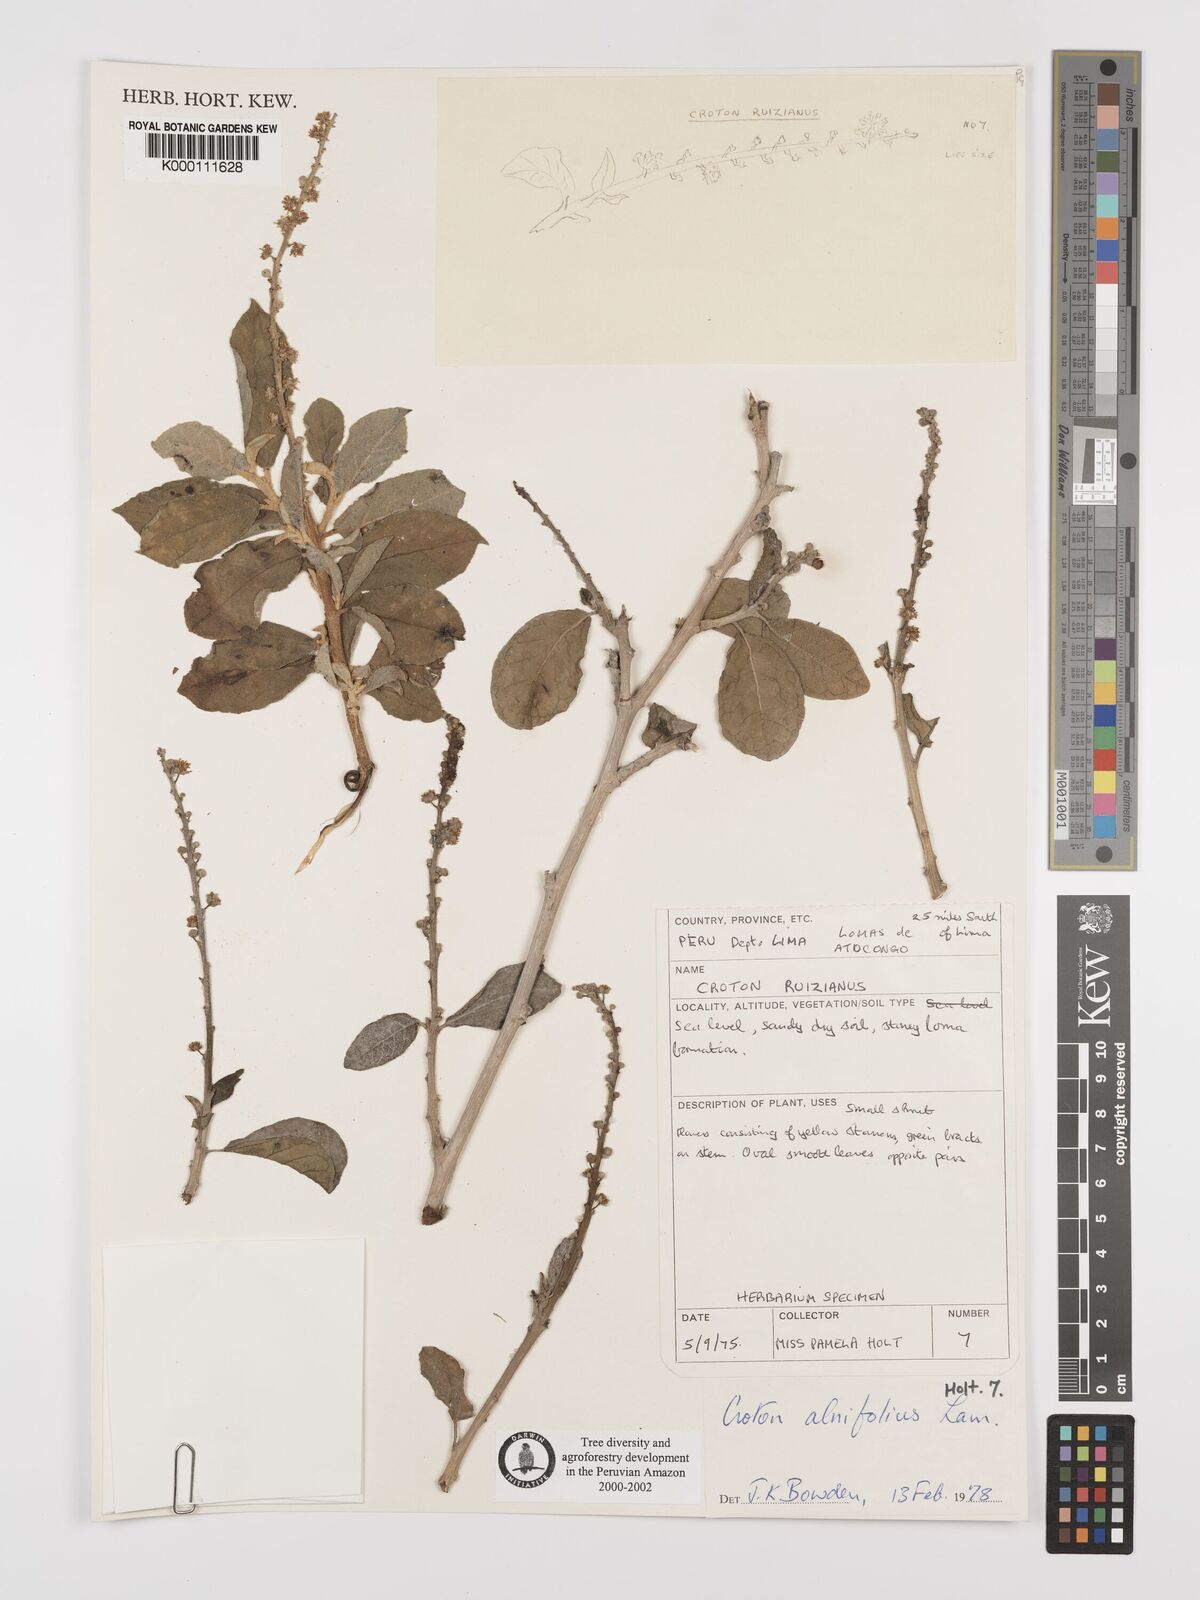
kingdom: Plantae
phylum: Tracheophyta
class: Magnoliopsida
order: Malpighiales
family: Euphorbiaceae
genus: Croton
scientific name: Croton alnifolius
